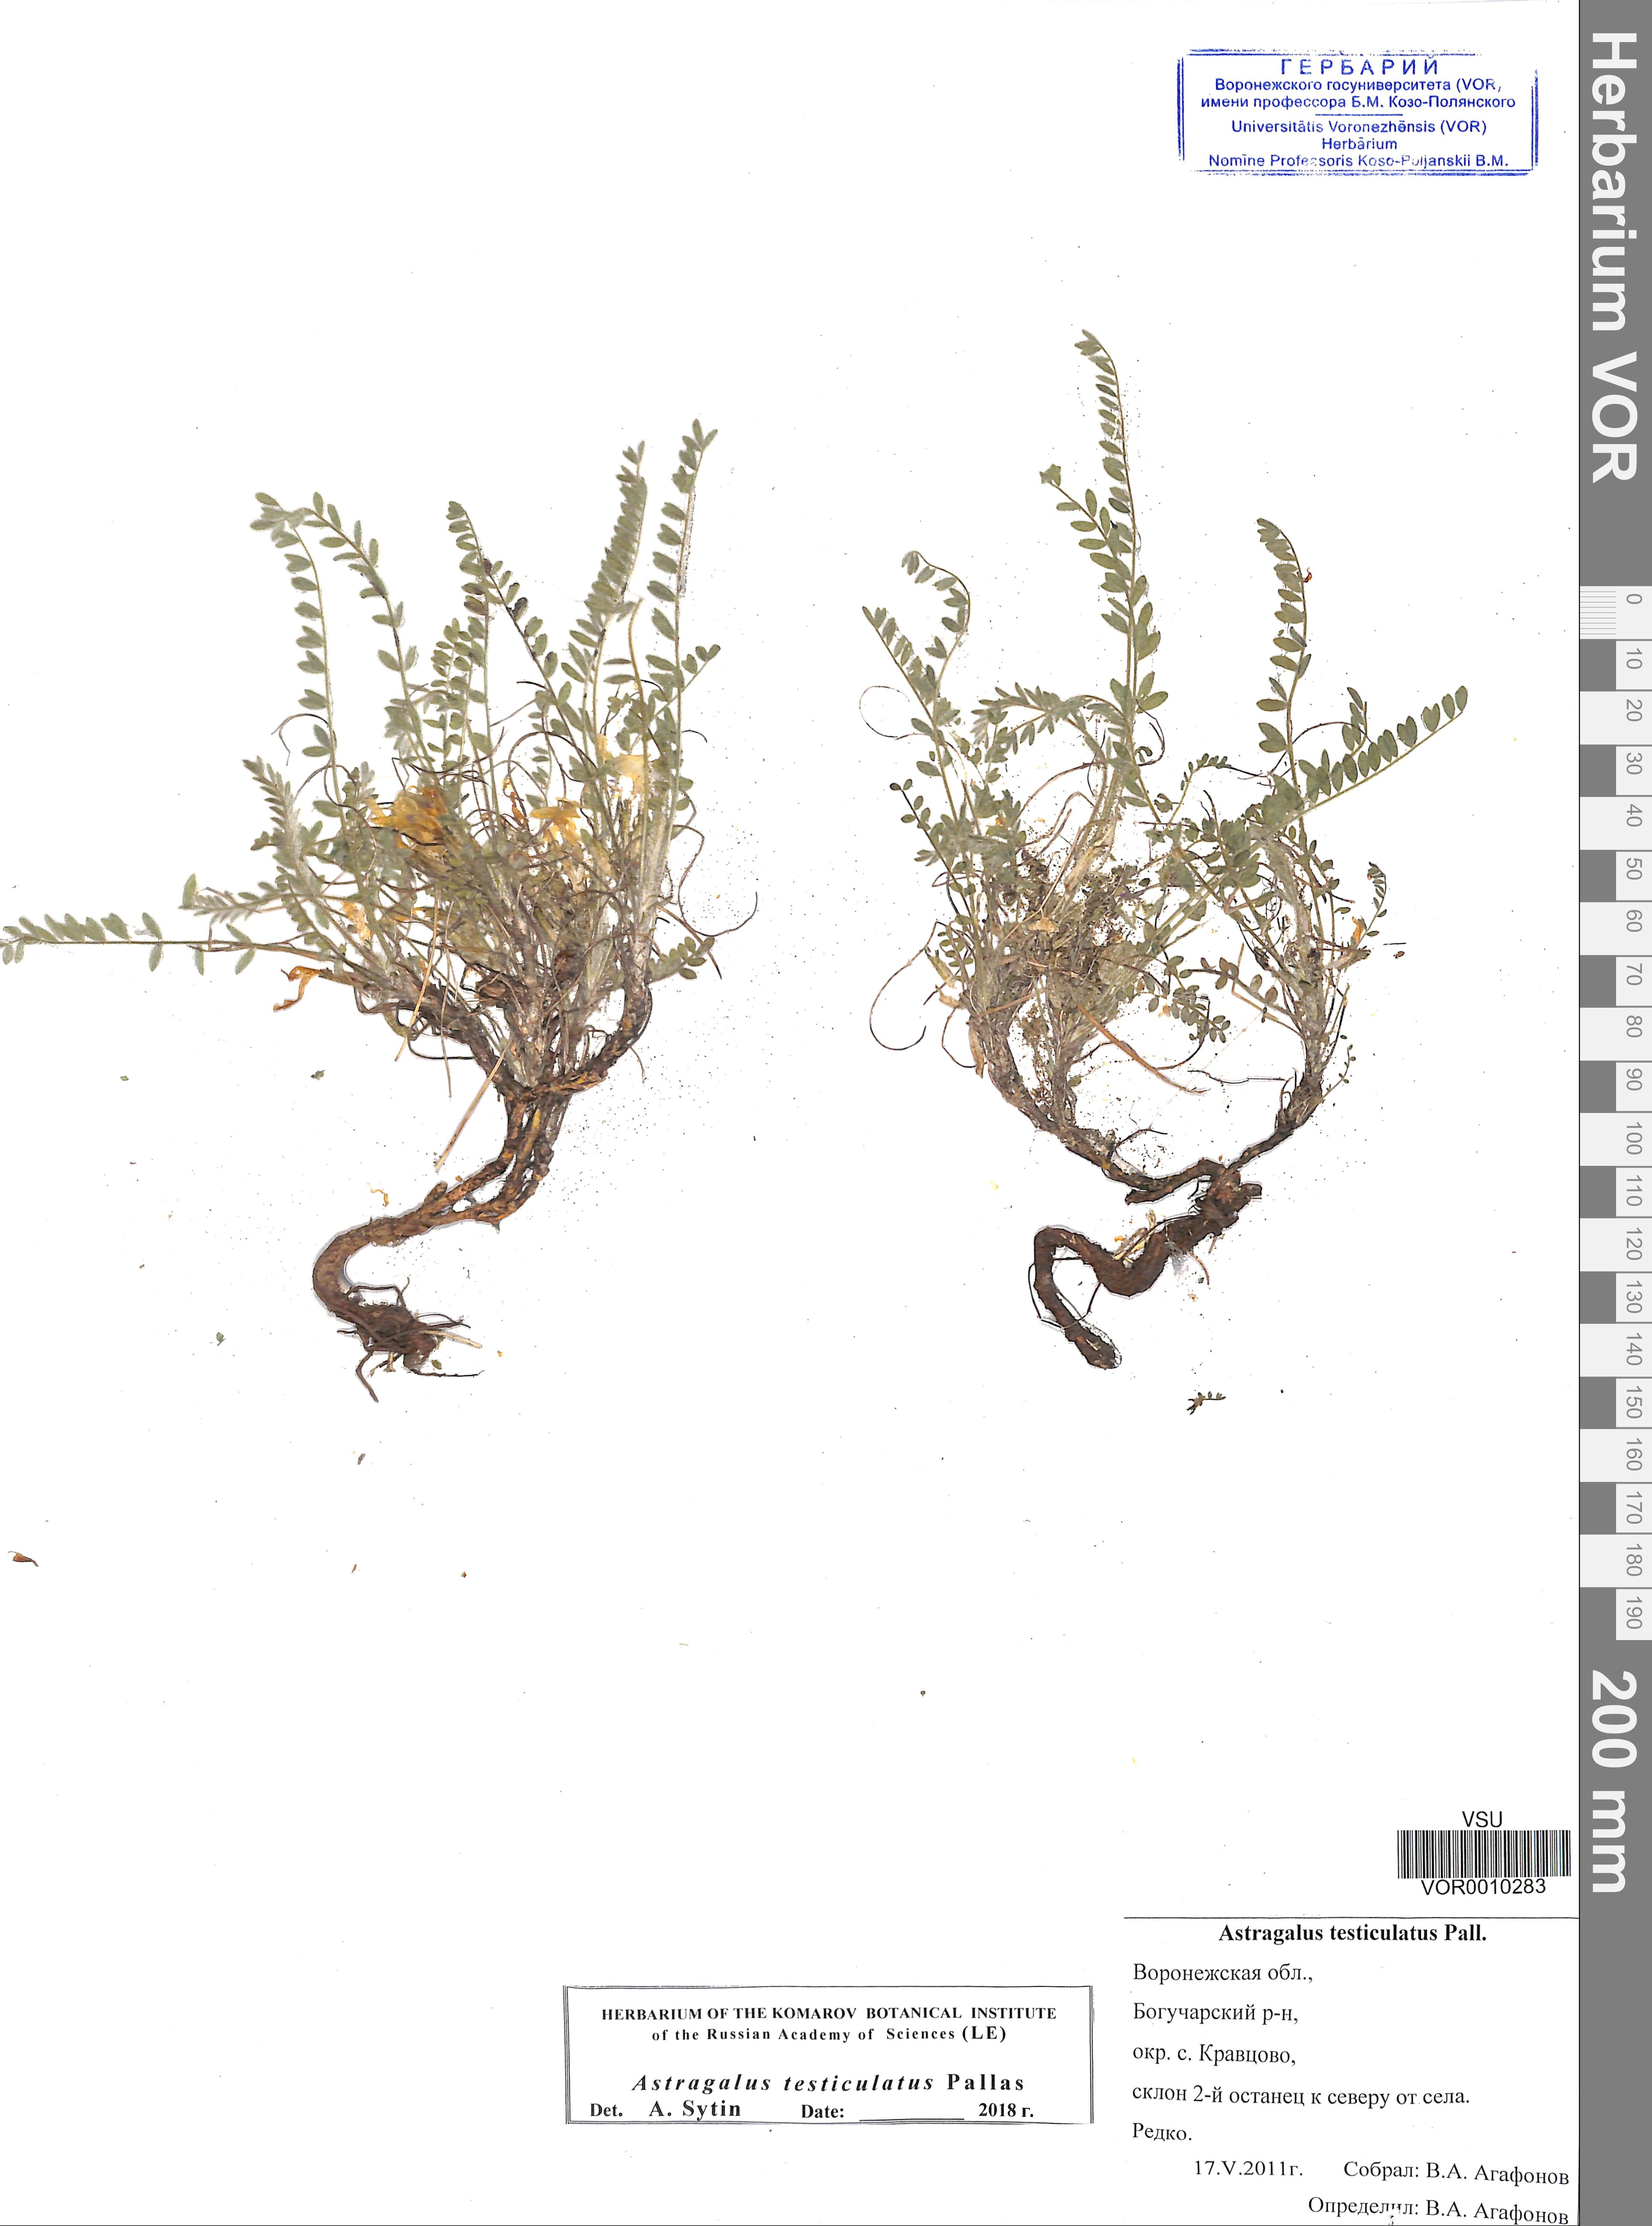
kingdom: Plantae
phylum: Tracheophyta
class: Magnoliopsida
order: Fabales
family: Fabaceae
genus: Astragalus
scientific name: Astragalus testiculatus
